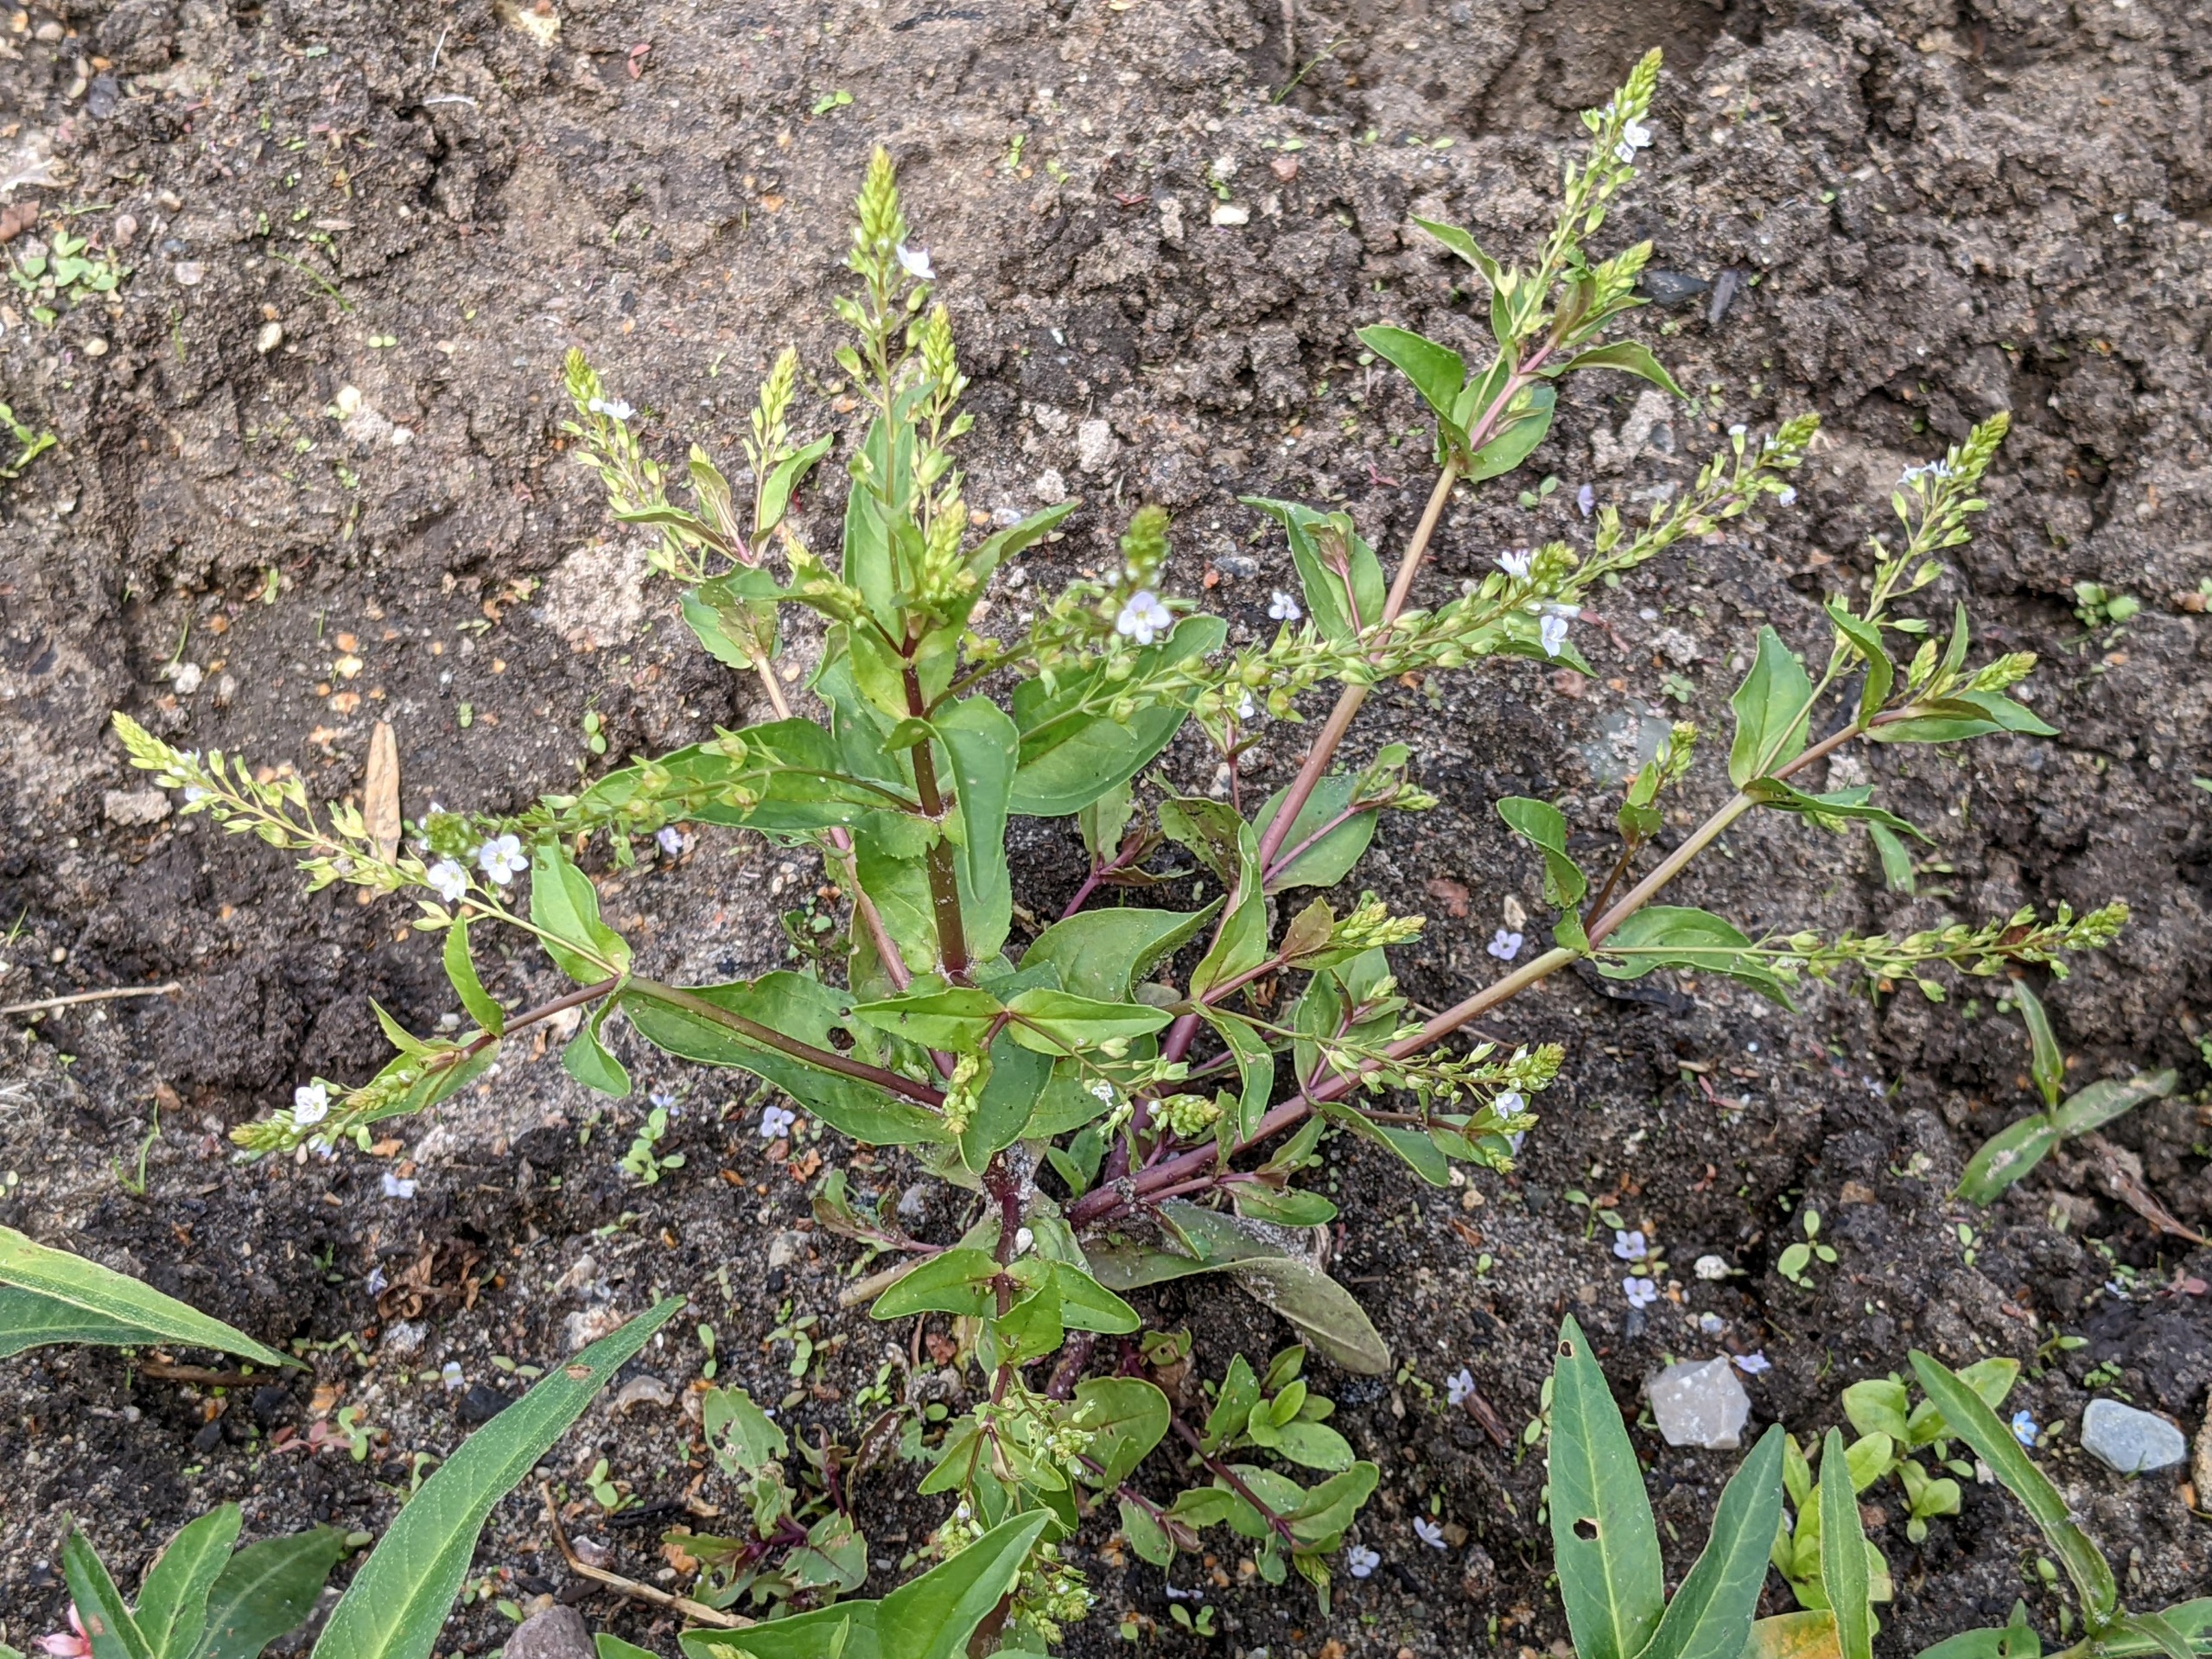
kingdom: Plantae
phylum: Tracheophyta
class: Magnoliopsida
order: Lamiales
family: Plantaginaceae
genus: Veronica
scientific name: Veronica anagallis-aquatica
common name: Lancetbladet ærenpris
